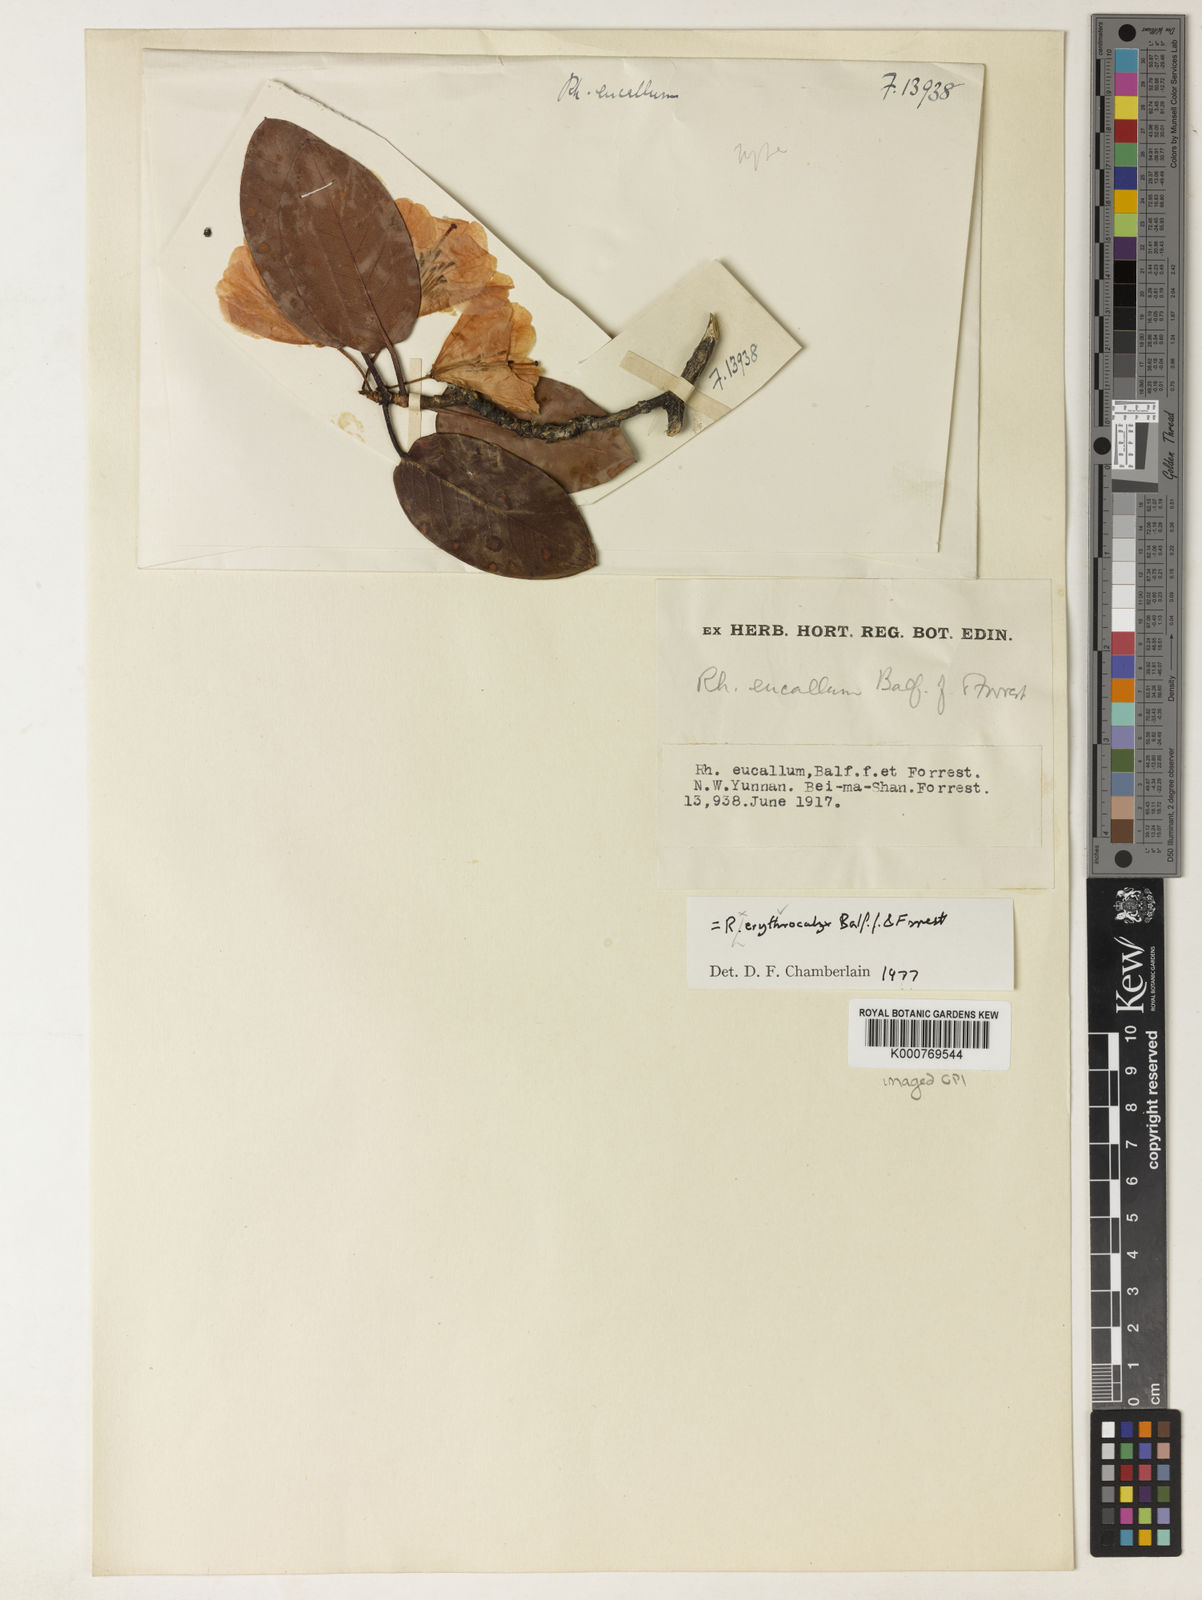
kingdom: Plantae
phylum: Tracheophyta
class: Magnoliopsida
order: Ericales
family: Ericaceae
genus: Rhododendron
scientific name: Rhododendron erythrocalyx
